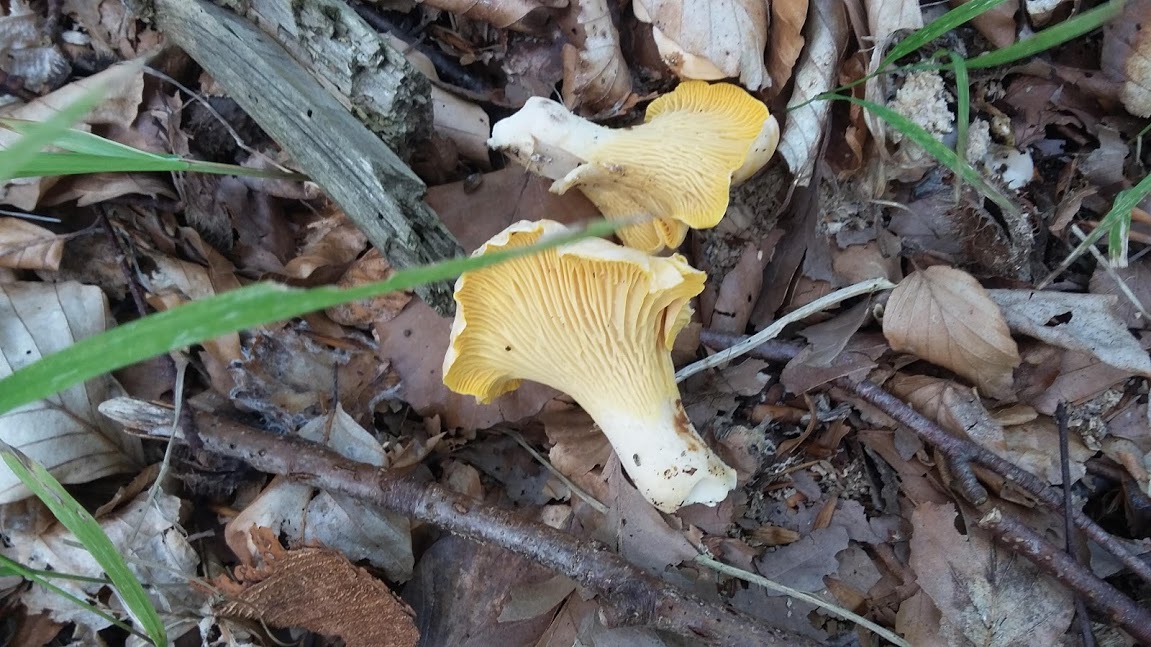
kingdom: Fungi
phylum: Basidiomycota
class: Agaricomycetes
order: Cantharellales
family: Hydnaceae
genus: Cantharellus
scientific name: Cantharellus cibarius
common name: almindelig kantarel
